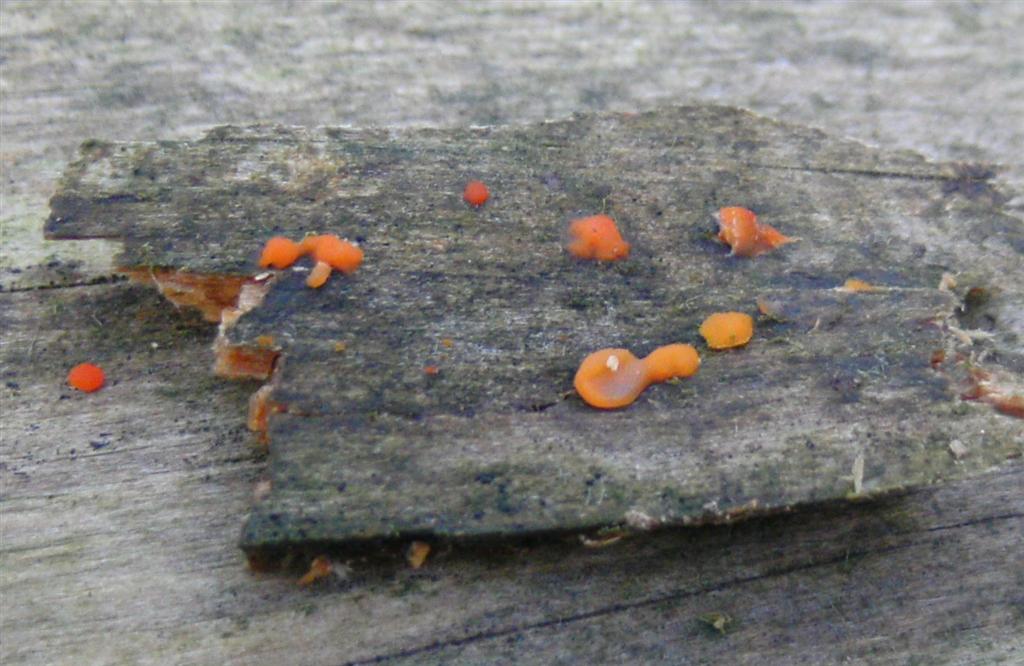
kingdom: Fungi
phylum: Basidiomycota
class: Dacrymycetes
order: Dacrymycetales
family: Dacrymycetaceae
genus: Dacrymyces
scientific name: Dacrymyces stillatus
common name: almindelig tåresvamp
